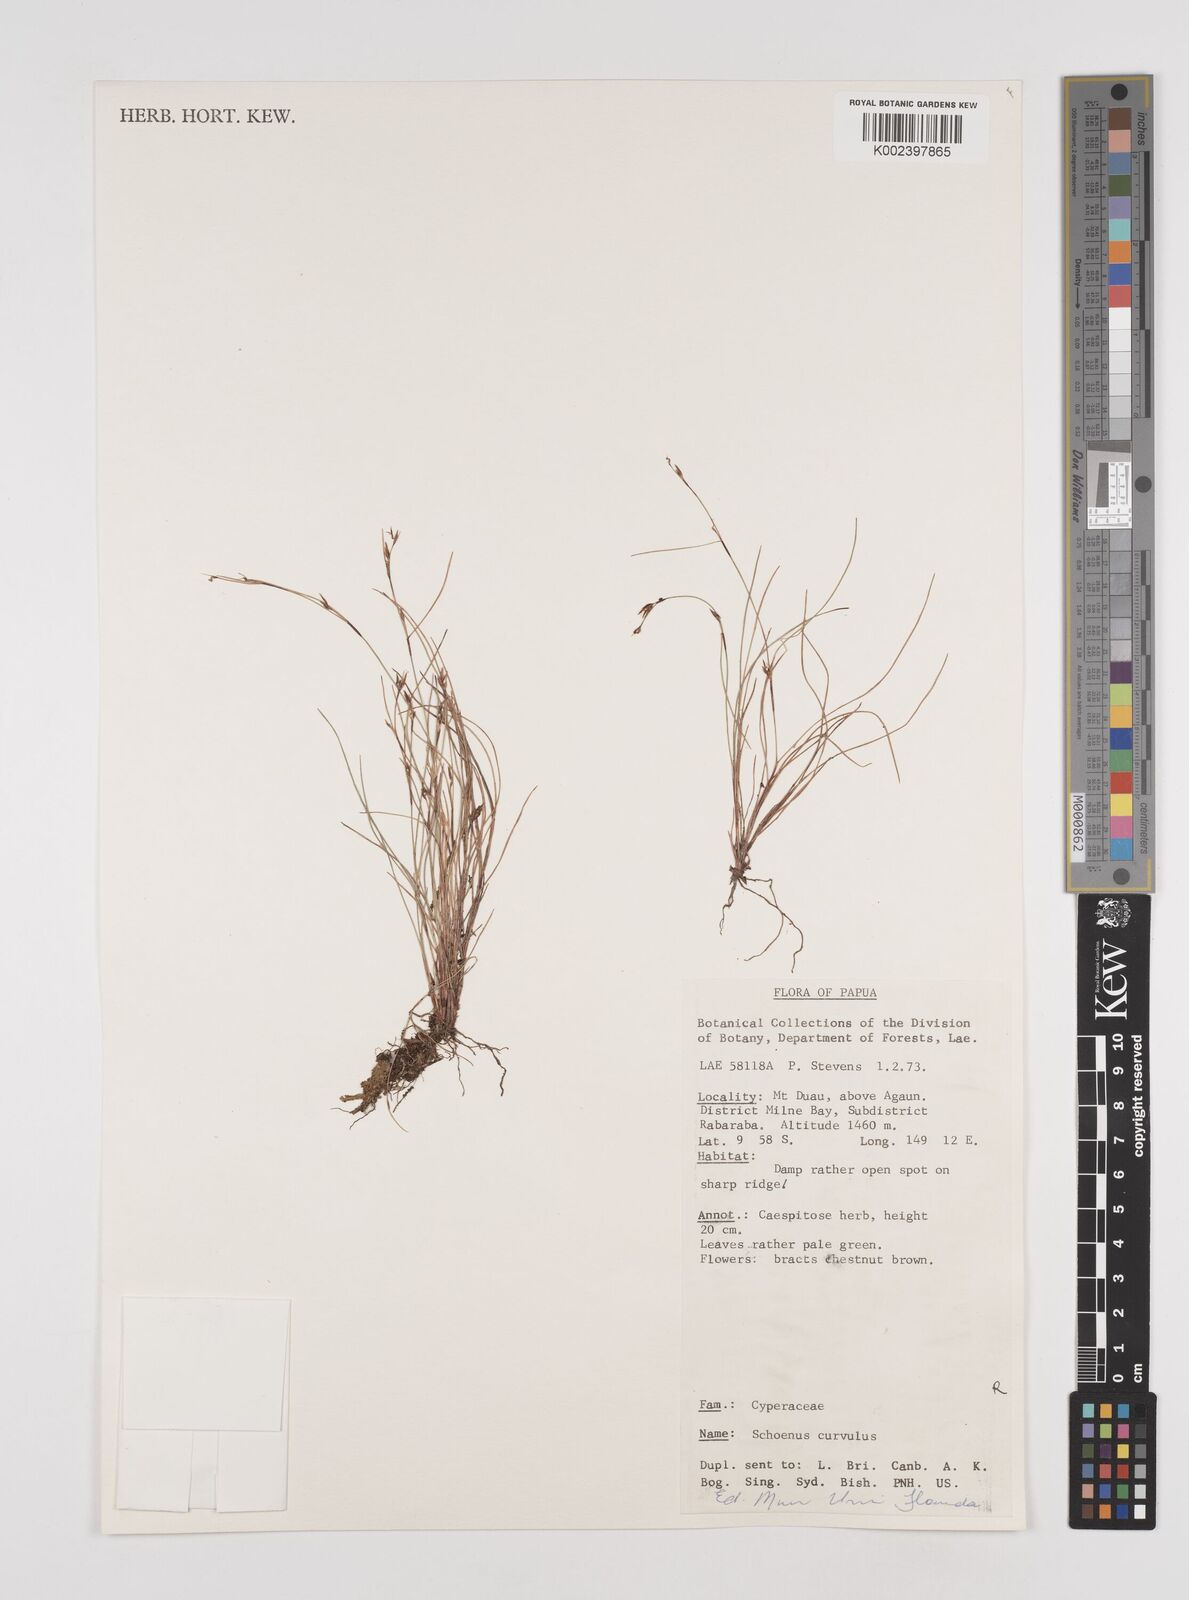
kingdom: Plantae
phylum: Tracheophyta
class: Liliopsida
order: Poales
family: Cyperaceae
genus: Schoenus
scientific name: Schoenus curvulus
